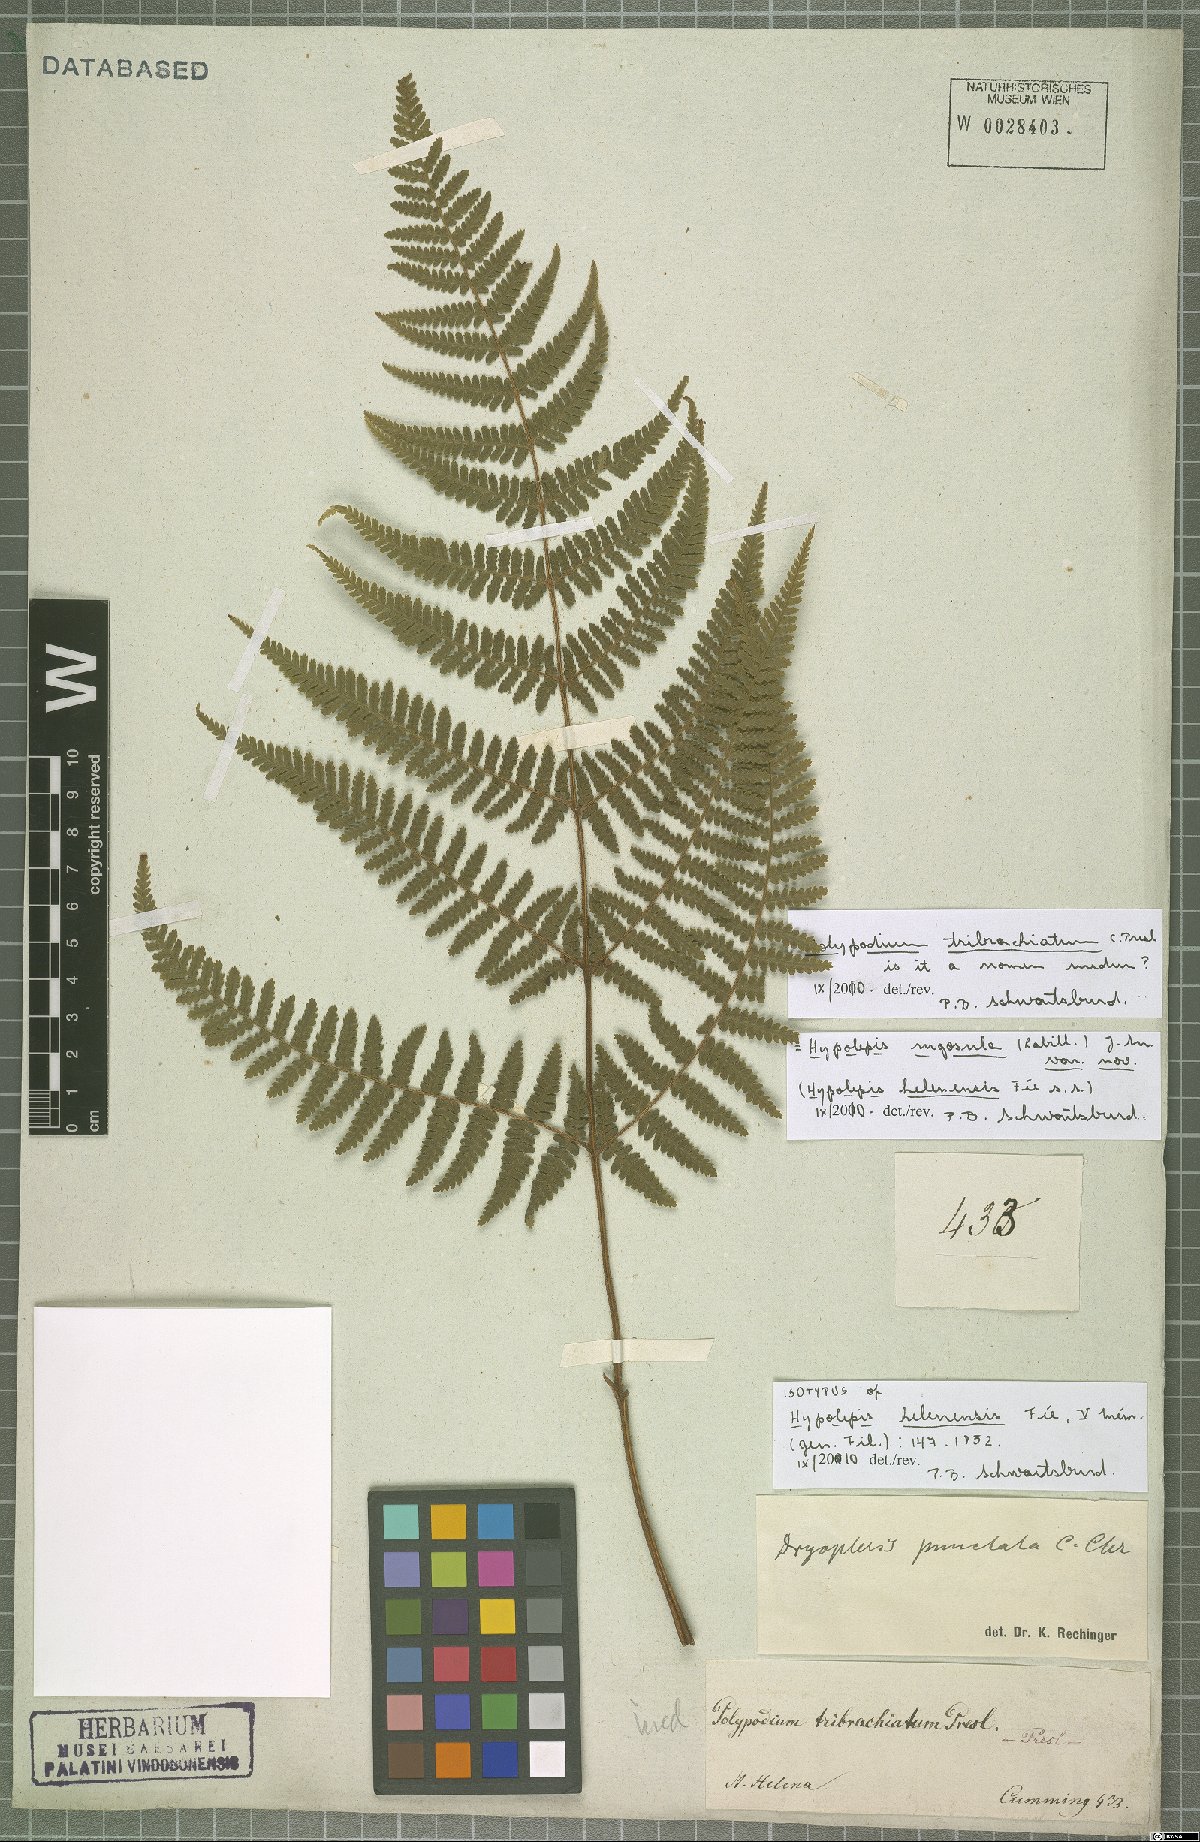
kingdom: Plantae
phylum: Tracheophyta
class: Polypodiopsida
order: Polypodiales
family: Dennstaedtiaceae
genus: Hypolepis
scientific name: Hypolepis rugosula
